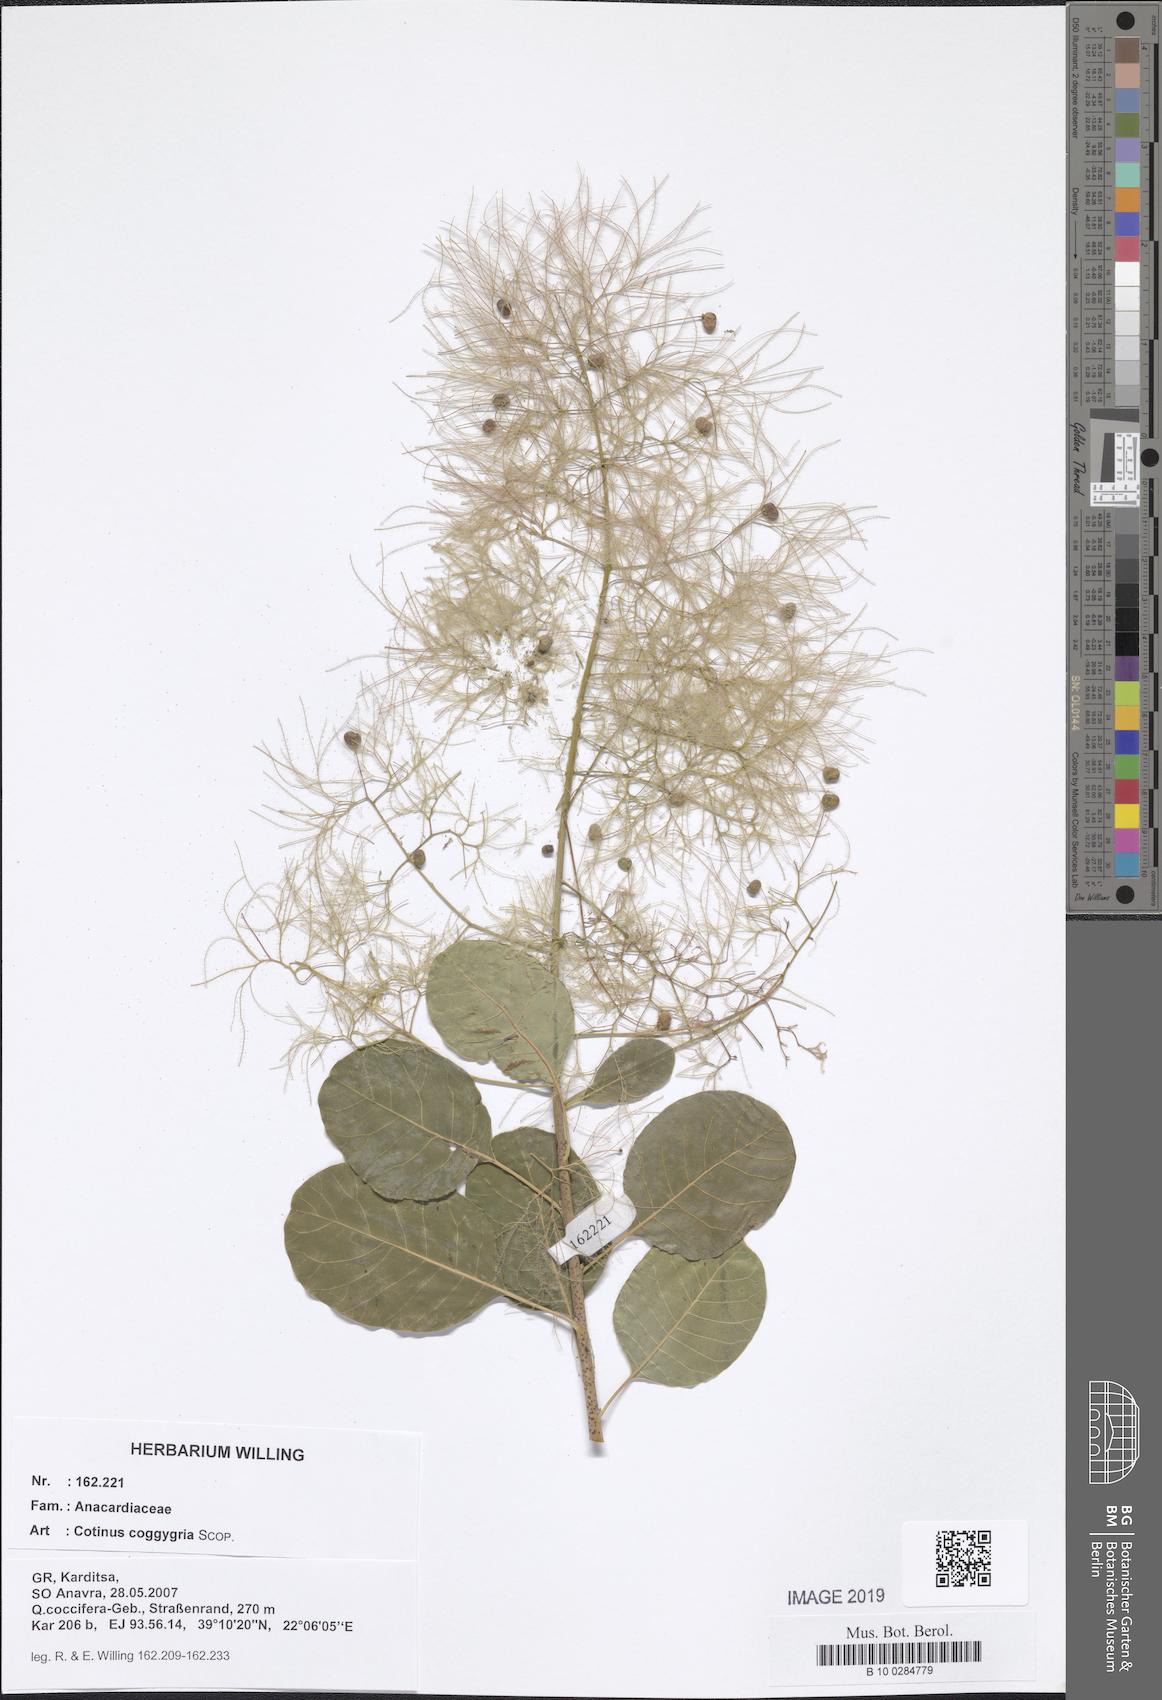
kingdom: Plantae
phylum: Tracheophyta
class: Magnoliopsida
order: Sapindales
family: Anacardiaceae
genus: Cotinus
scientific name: Cotinus coggygria
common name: Smoke-tree
